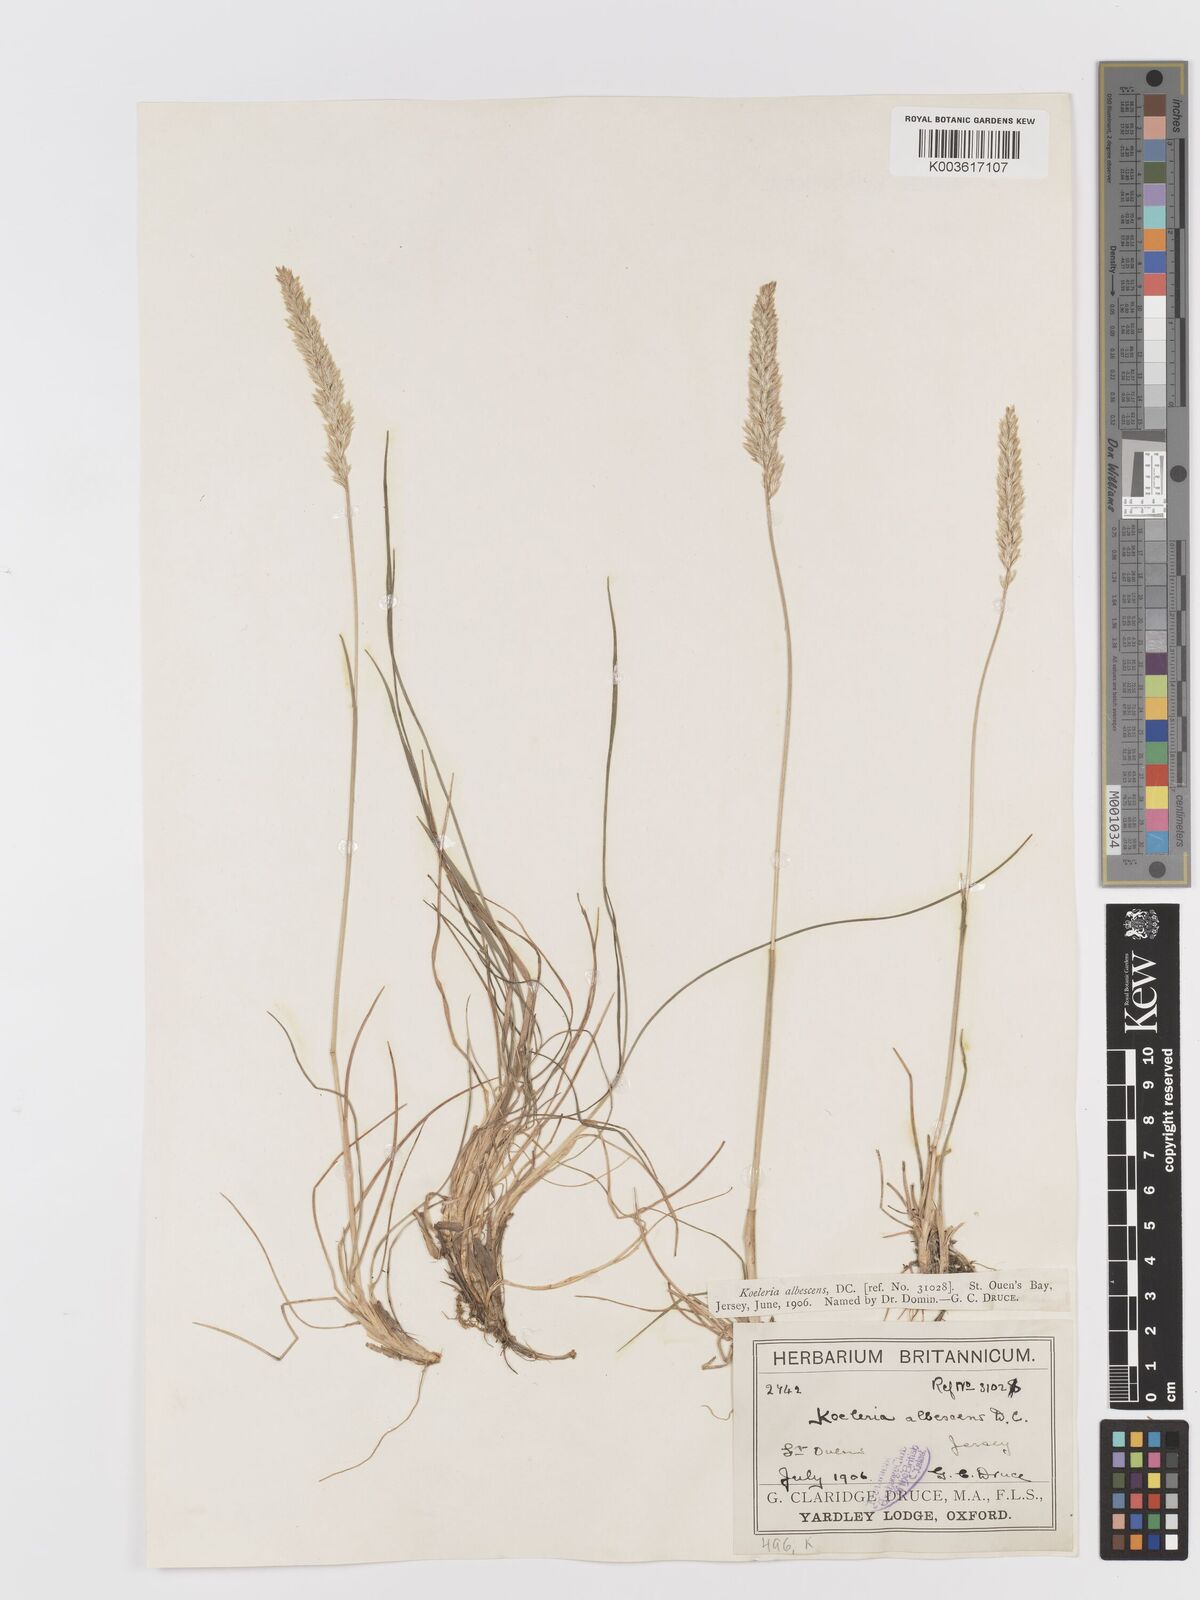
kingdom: Plantae
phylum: Tracheophyta
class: Liliopsida
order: Poales
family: Poaceae
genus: Koeleria
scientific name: Koeleria macrantha
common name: Crested hair-grass
